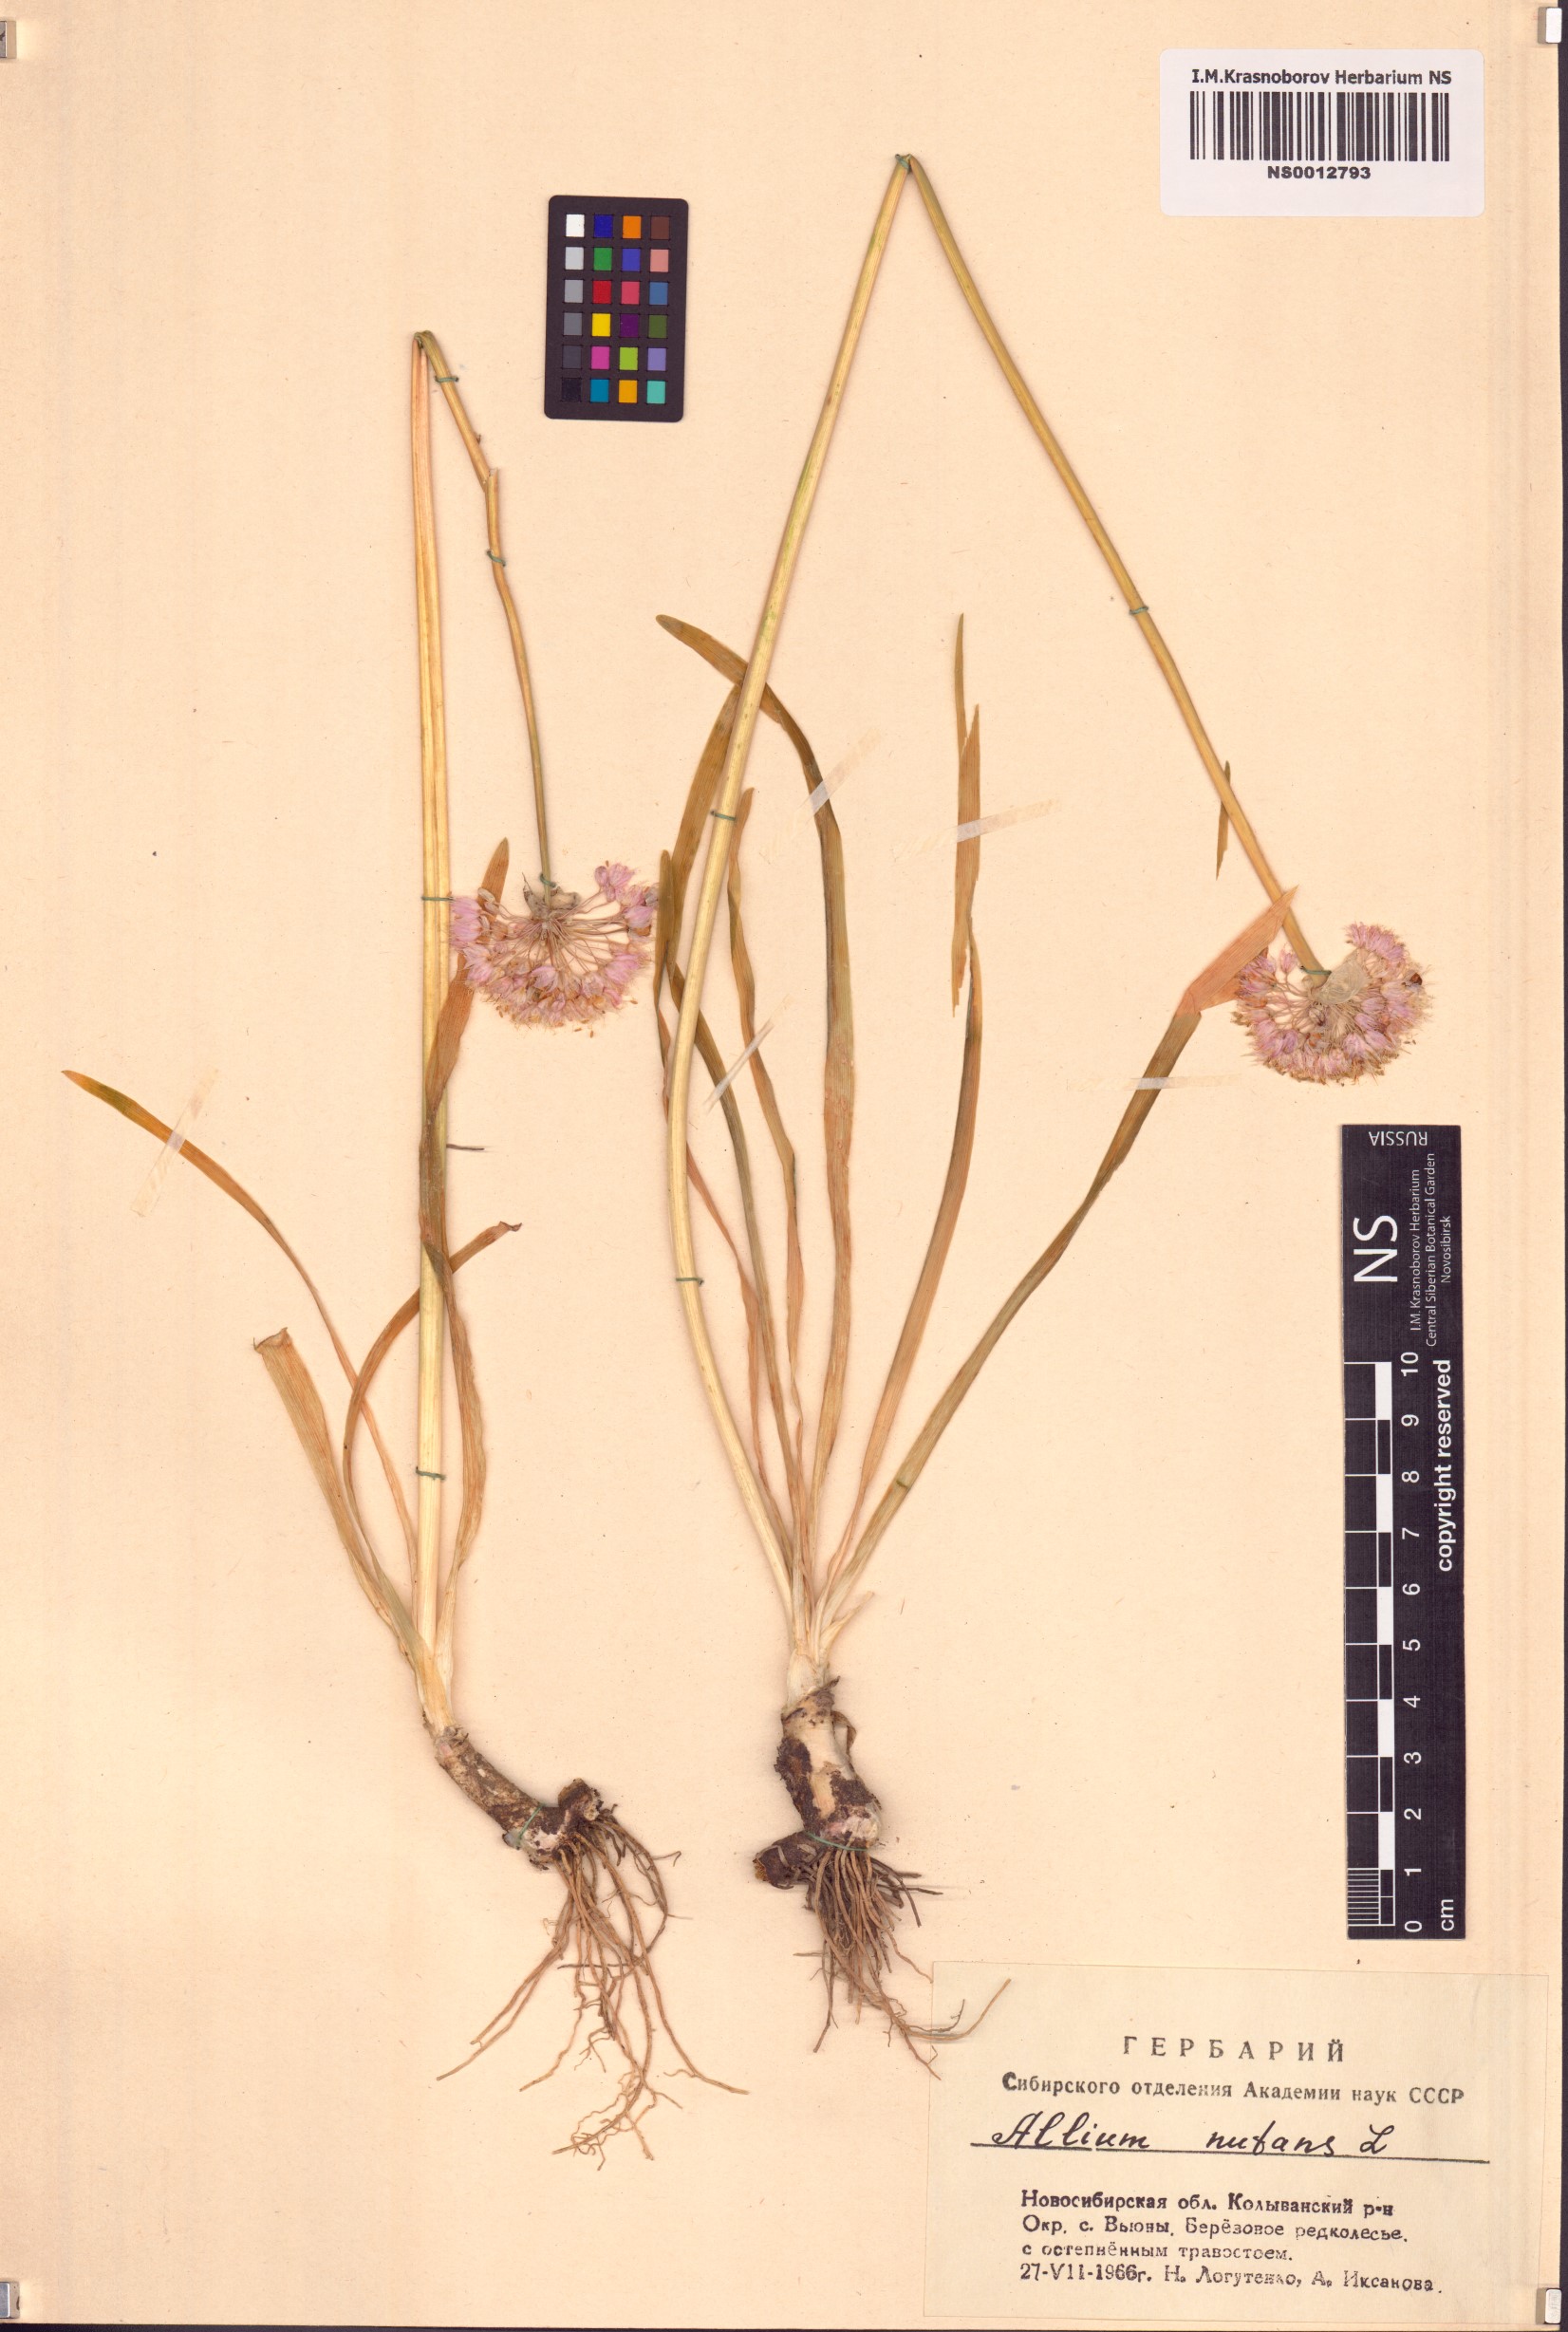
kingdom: Plantae
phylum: Tracheophyta
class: Liliopsida
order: Asparagales
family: Amaryllidaceae
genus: Allium
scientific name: Allium nutans
